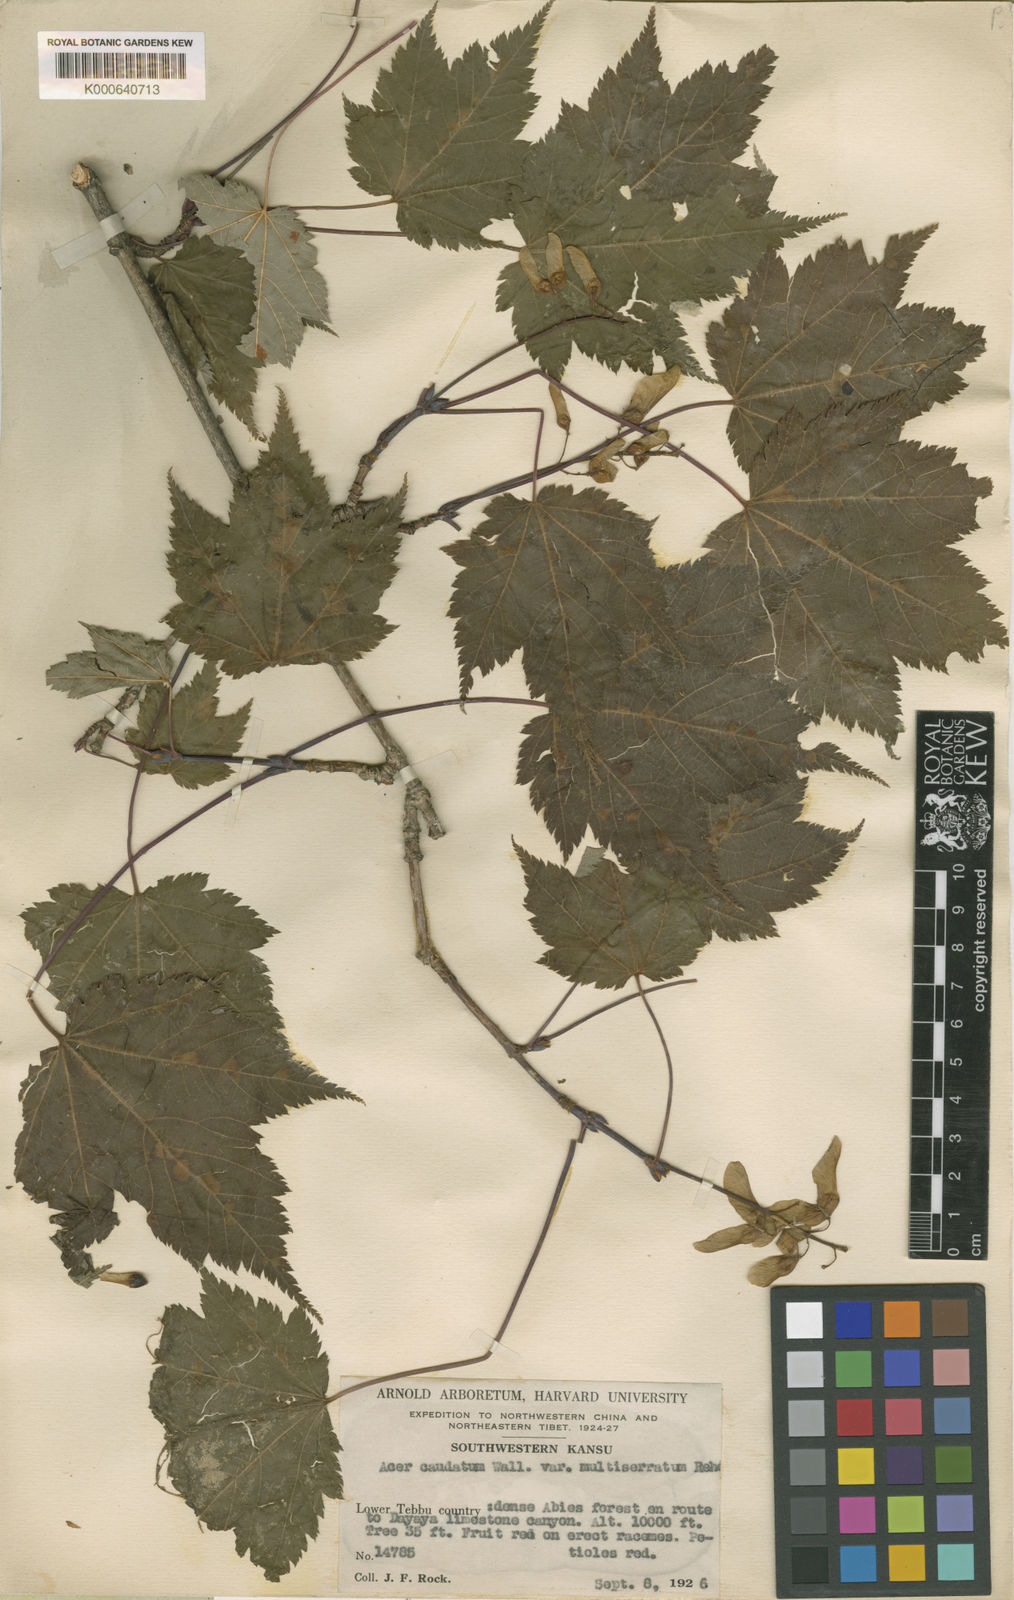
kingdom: Plantae
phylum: Tracheophyta
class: Magnoliopsida
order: Sapindales
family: Sapindaceae
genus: Acer
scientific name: Acer
